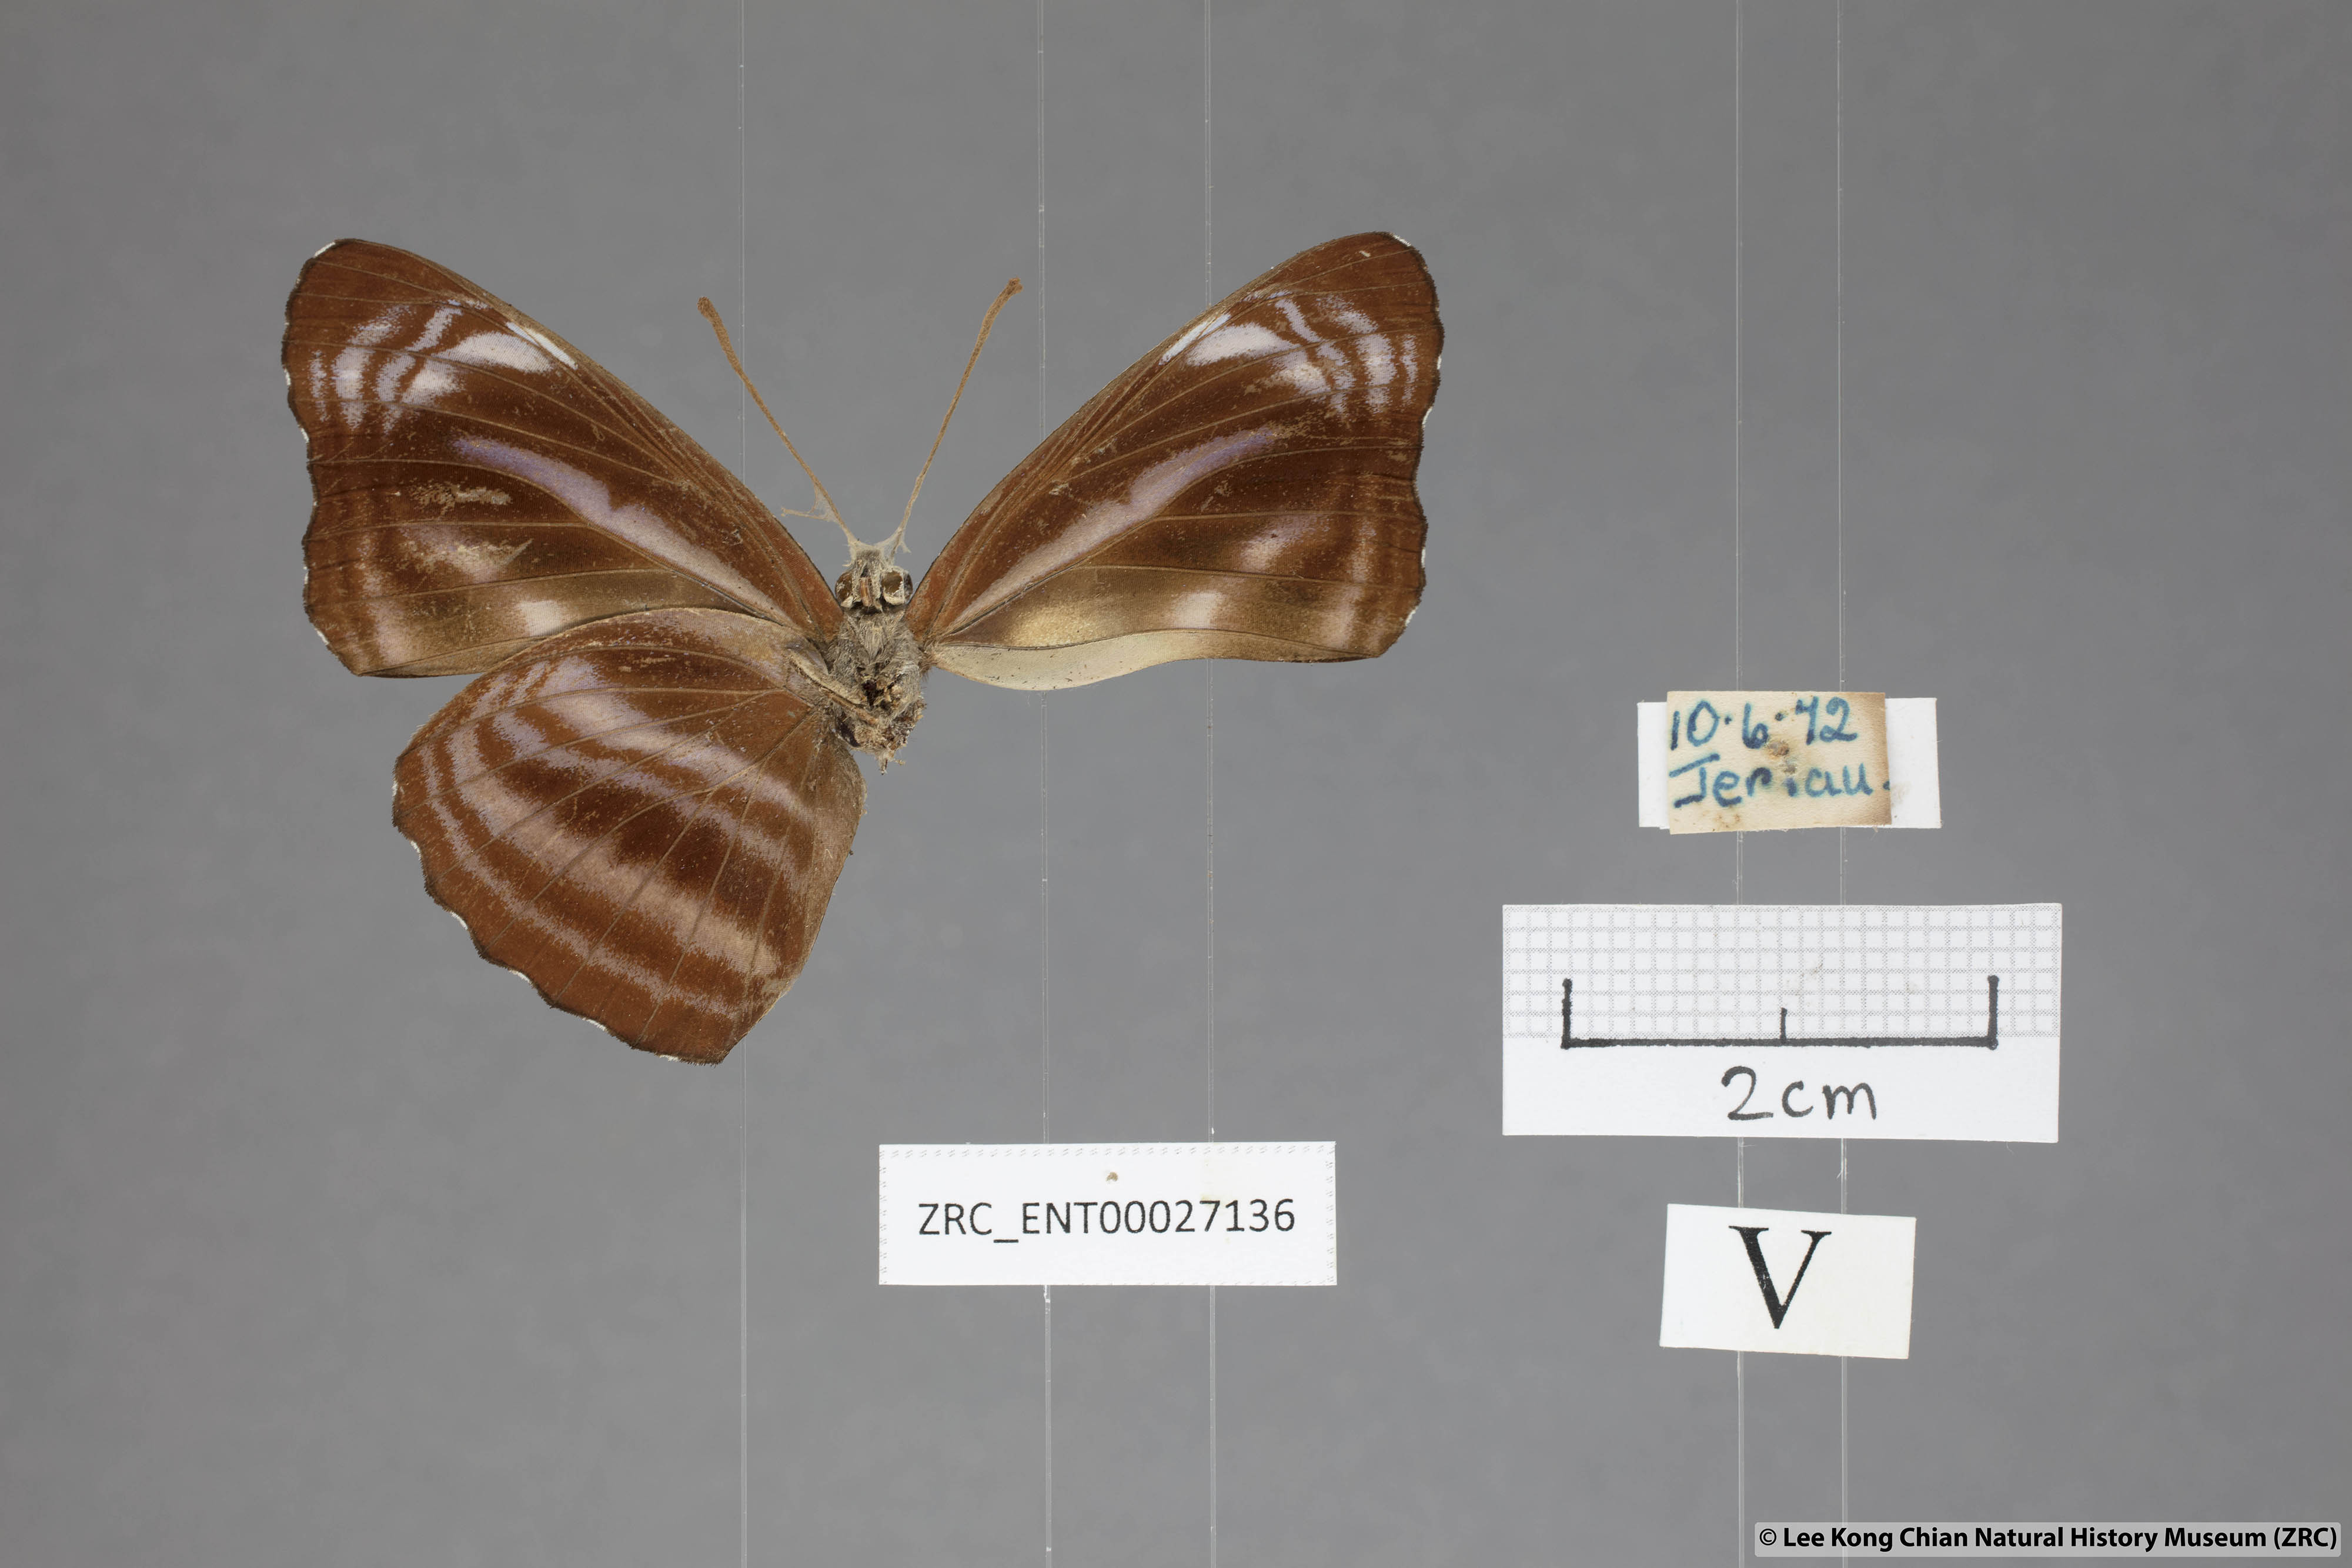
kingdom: Animalia
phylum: Arthropoda
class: Insecta
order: Lepidoptera
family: Nymphalidae
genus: Neptis
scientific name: Neptis anjana
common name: Rich sailer
